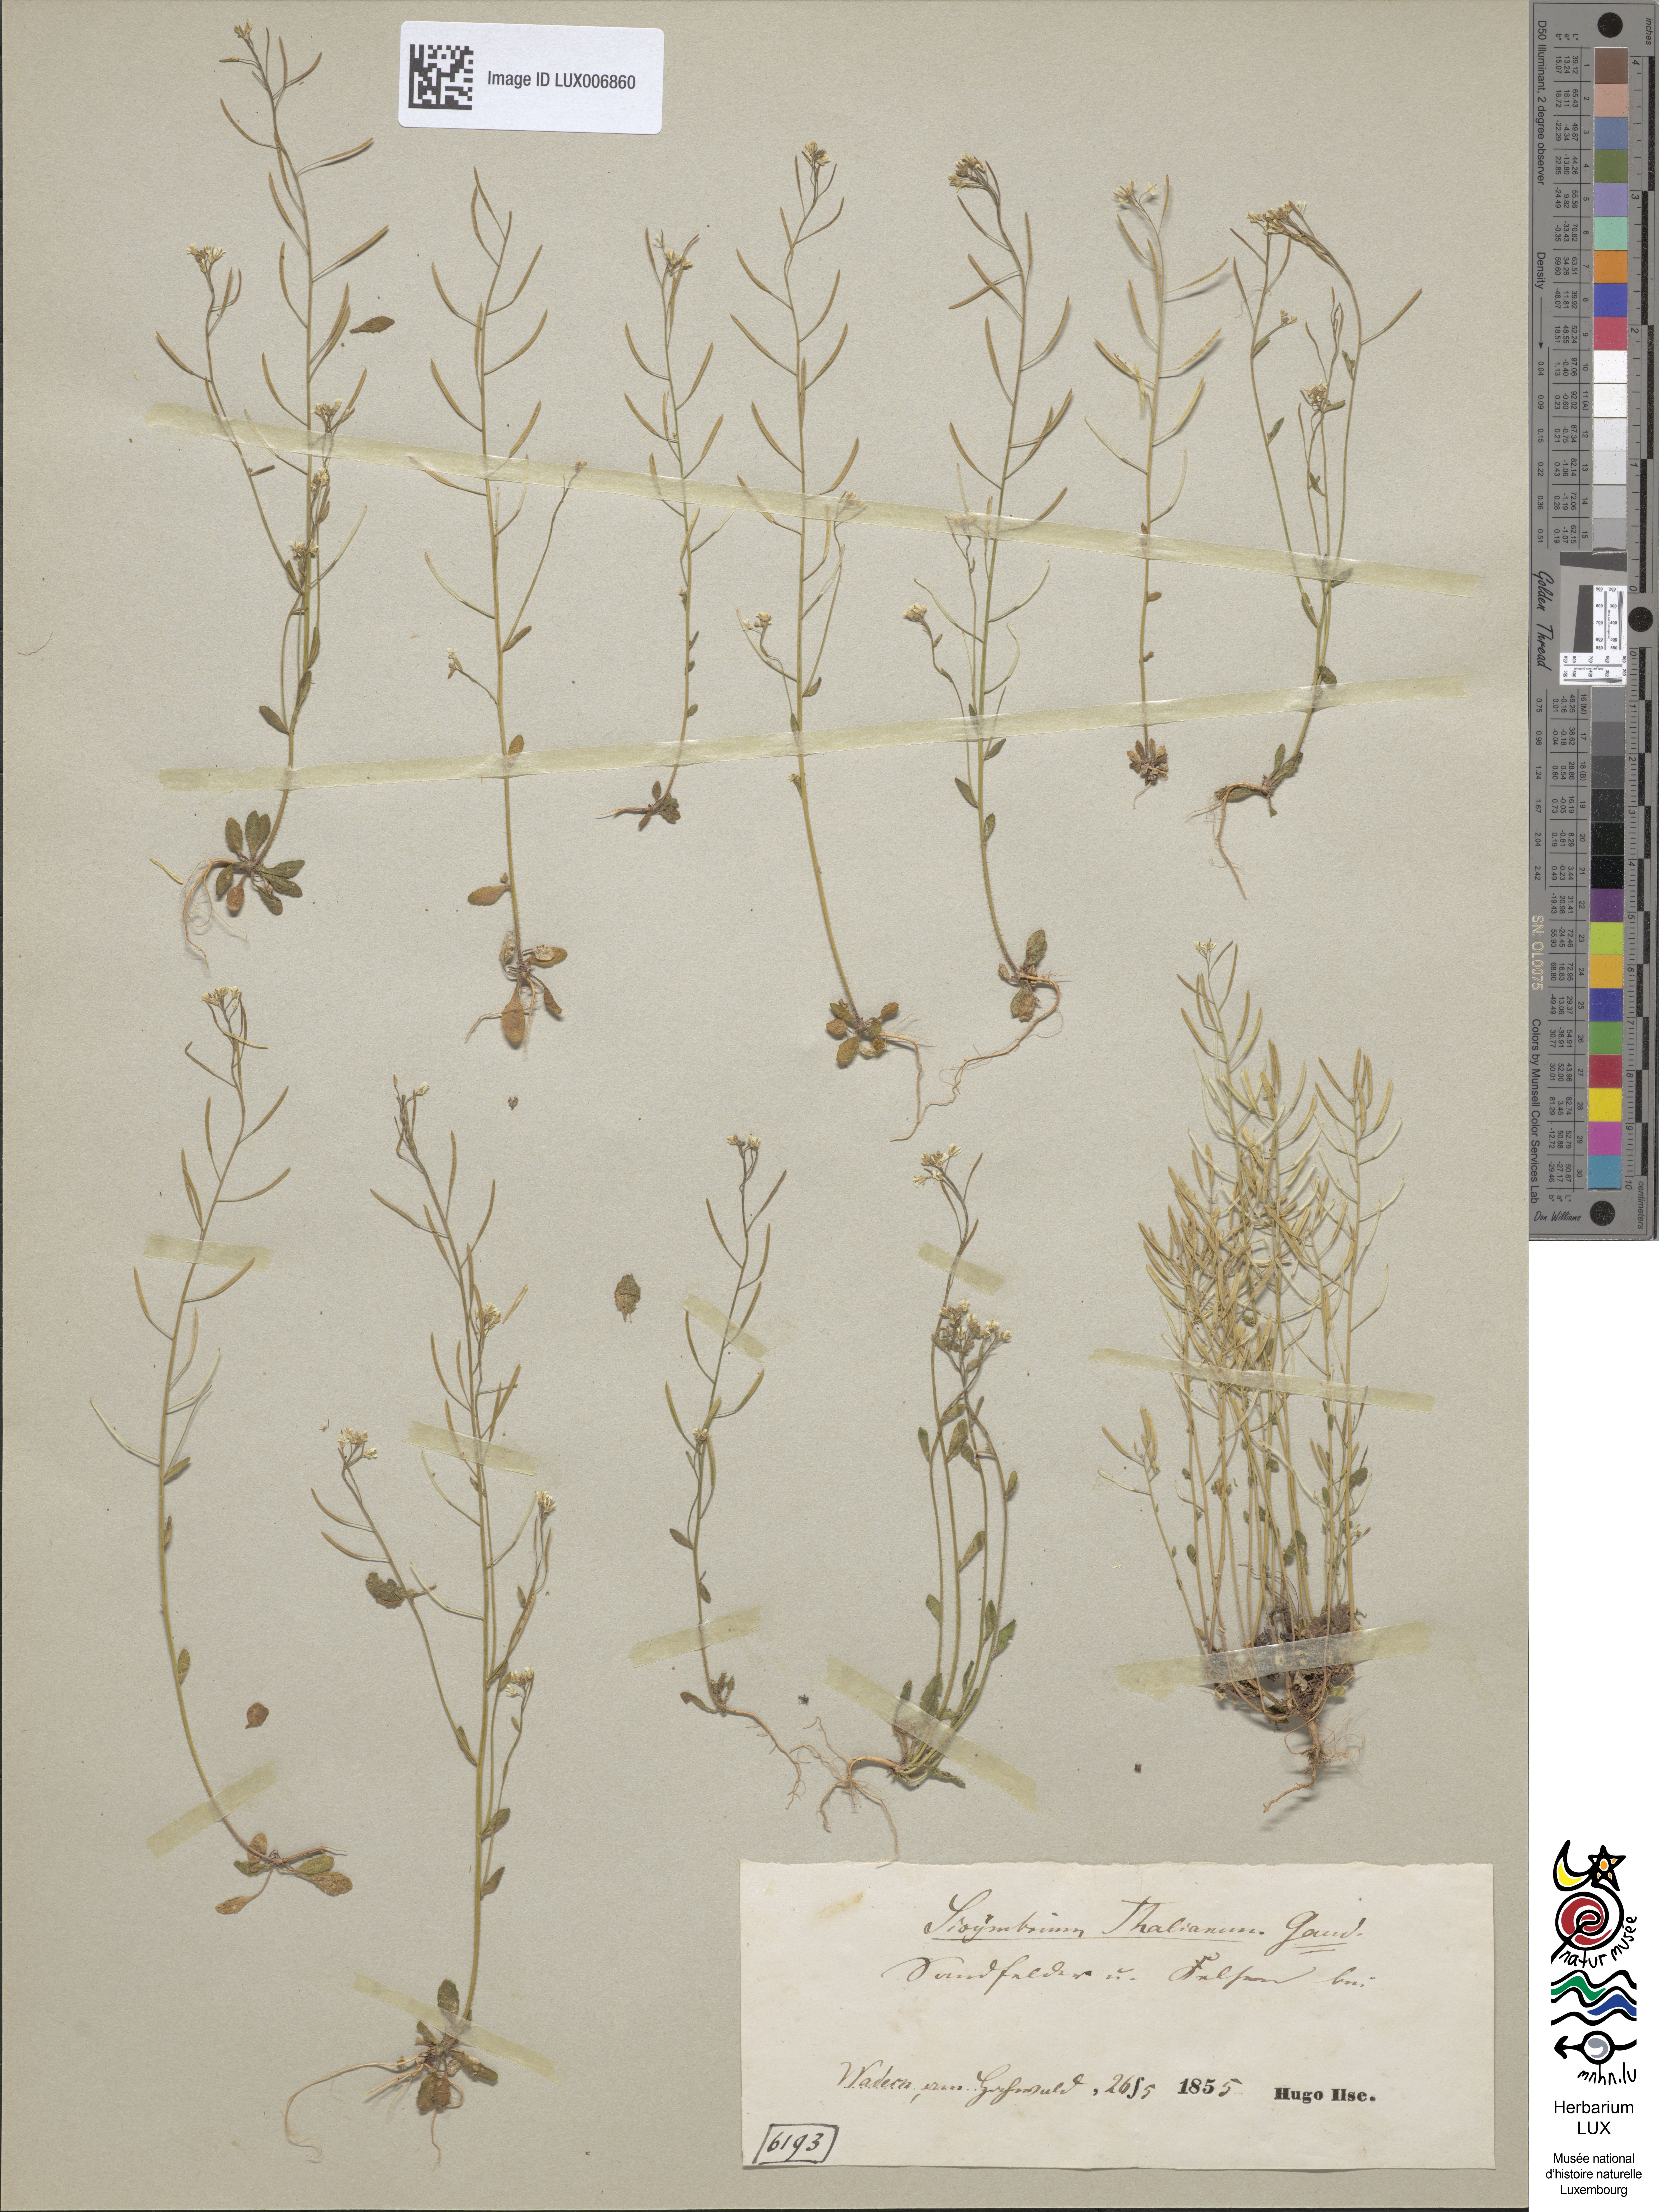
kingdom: Plantae
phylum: Tracheophyta
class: Magnoliopsida
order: Brassicales
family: Brassicaceae
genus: Arabidopsis
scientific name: Arabidopsis thaliana
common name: Thale cress
